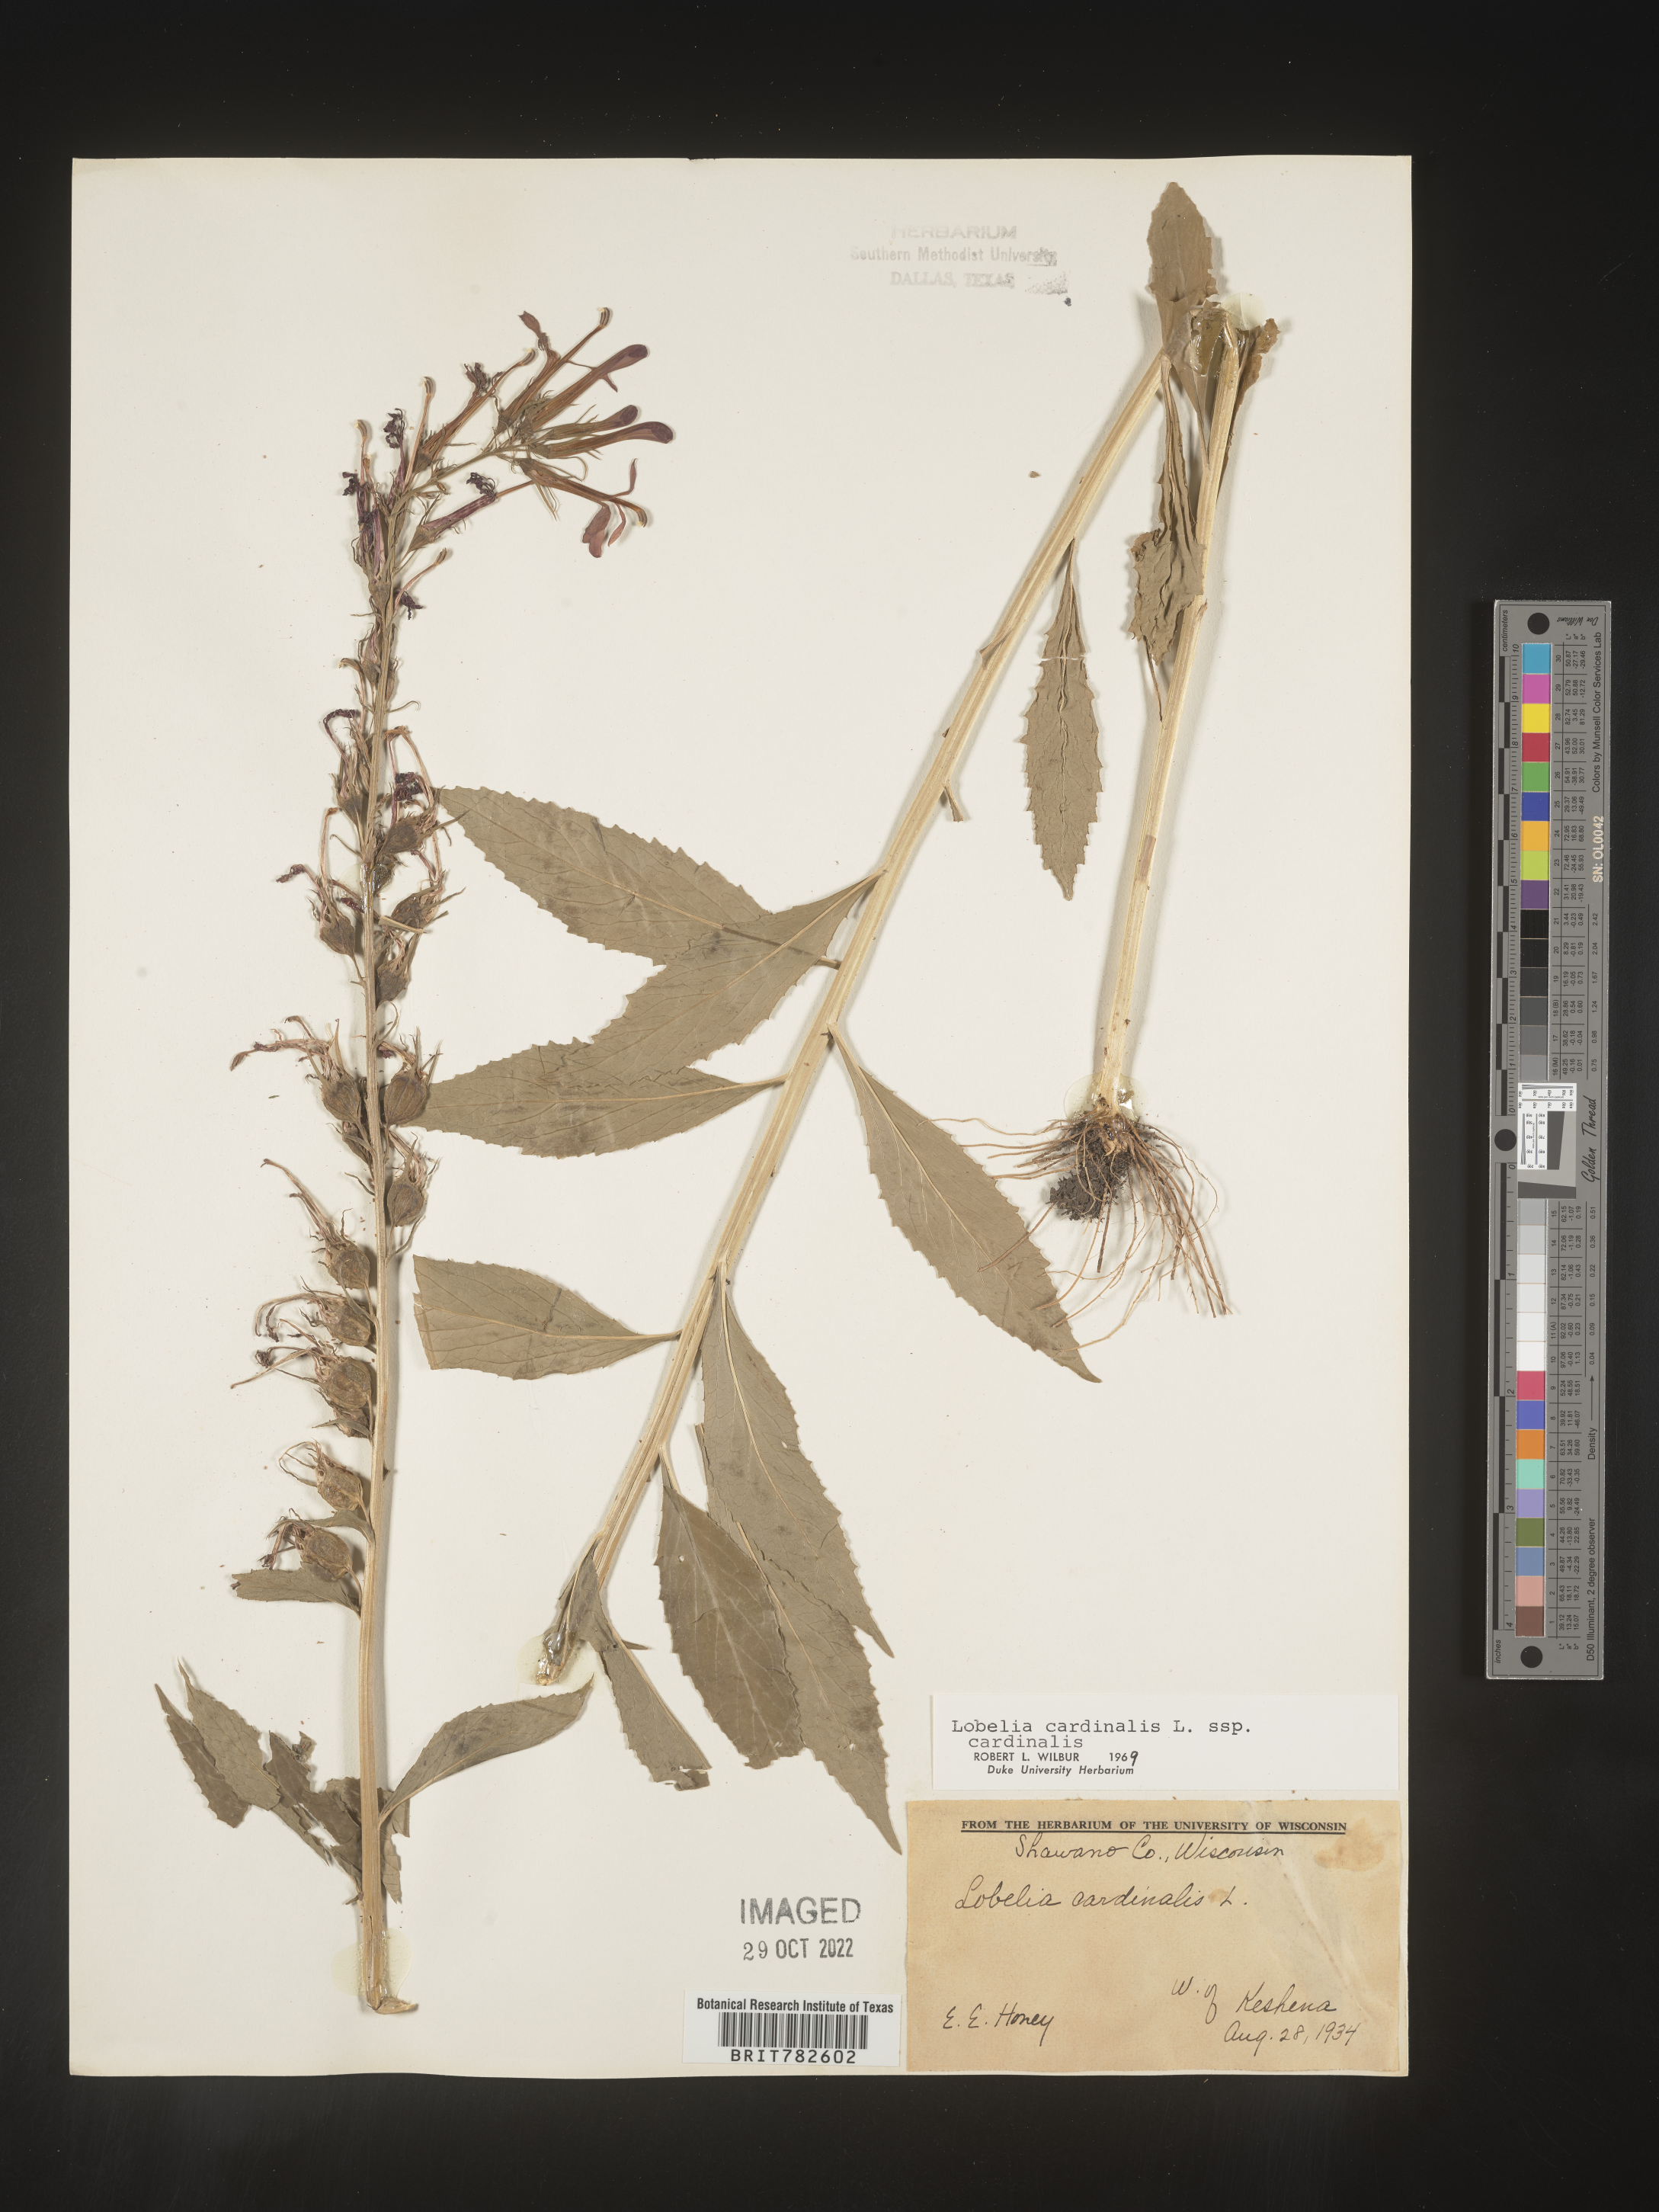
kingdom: Plantae
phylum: Tracheophyta
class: Magnoliopsida
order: Asterales
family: Campanulaceae
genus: Lobelia
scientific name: Lobelia cardinalis
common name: Cardinal flower
